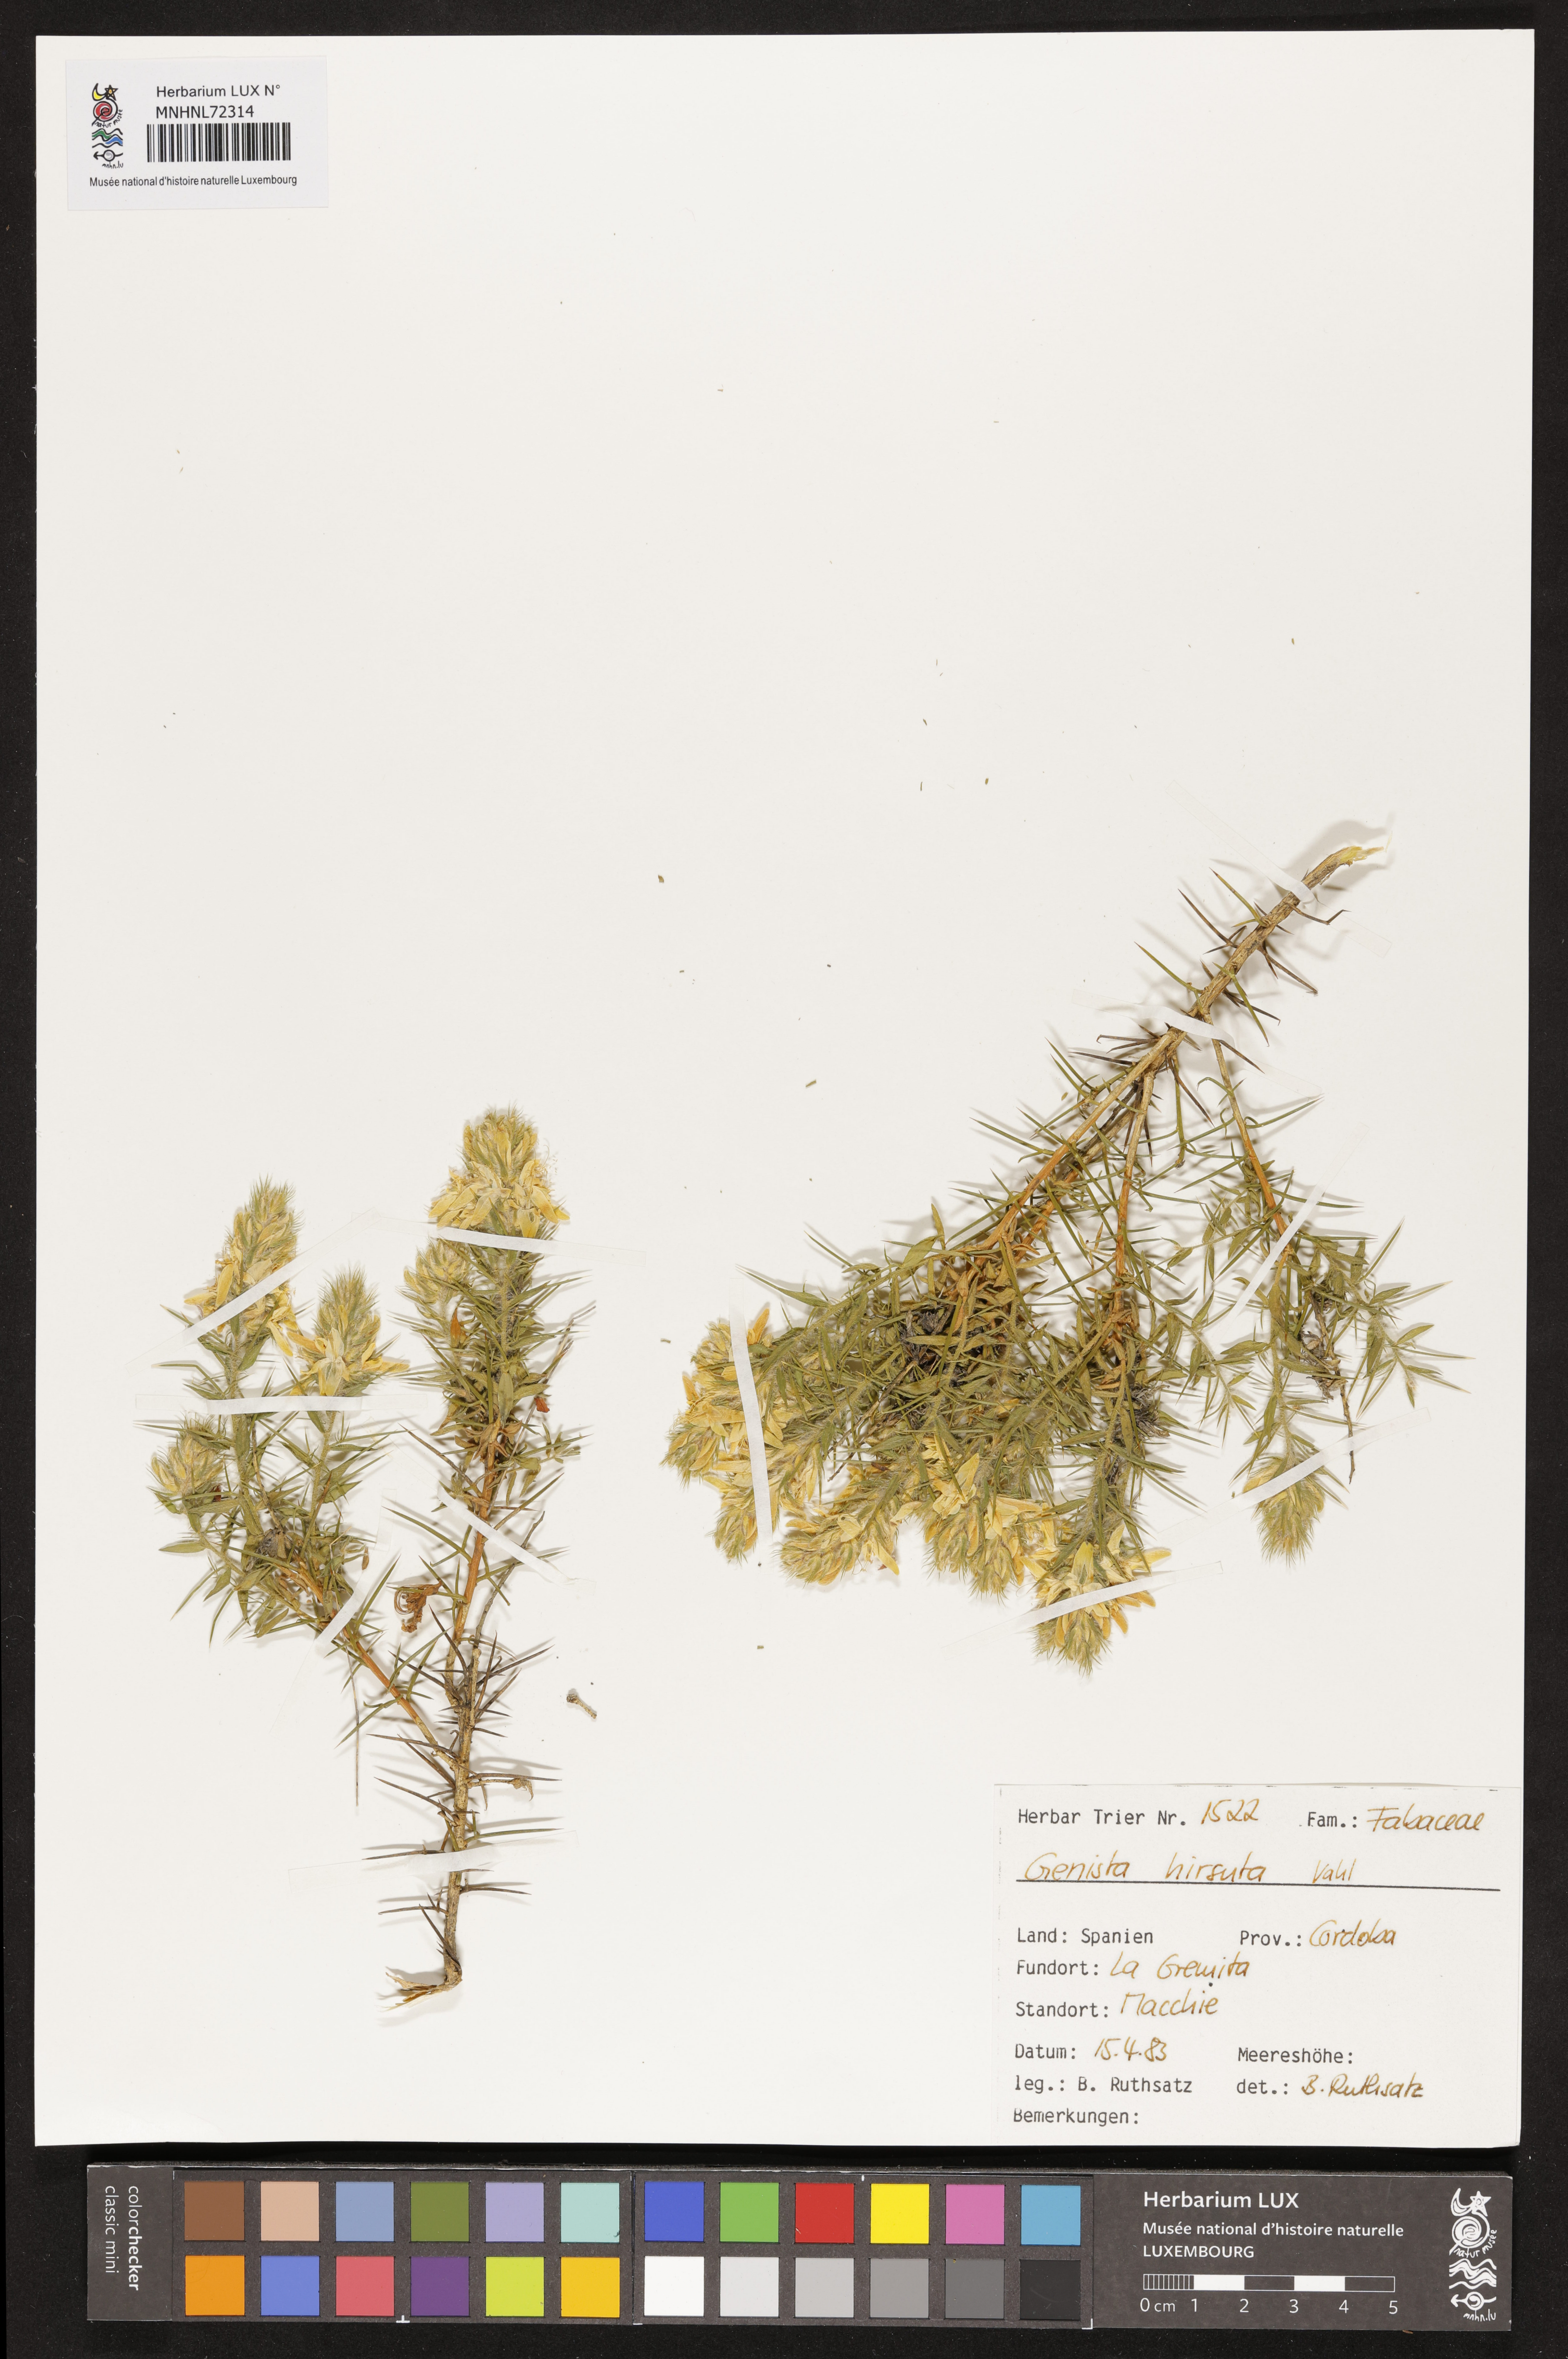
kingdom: Plantae
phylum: Tracheophyta
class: Magnoliopsida
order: Fabales
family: Fabaceae
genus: Genista
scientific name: Genista hirsuta
